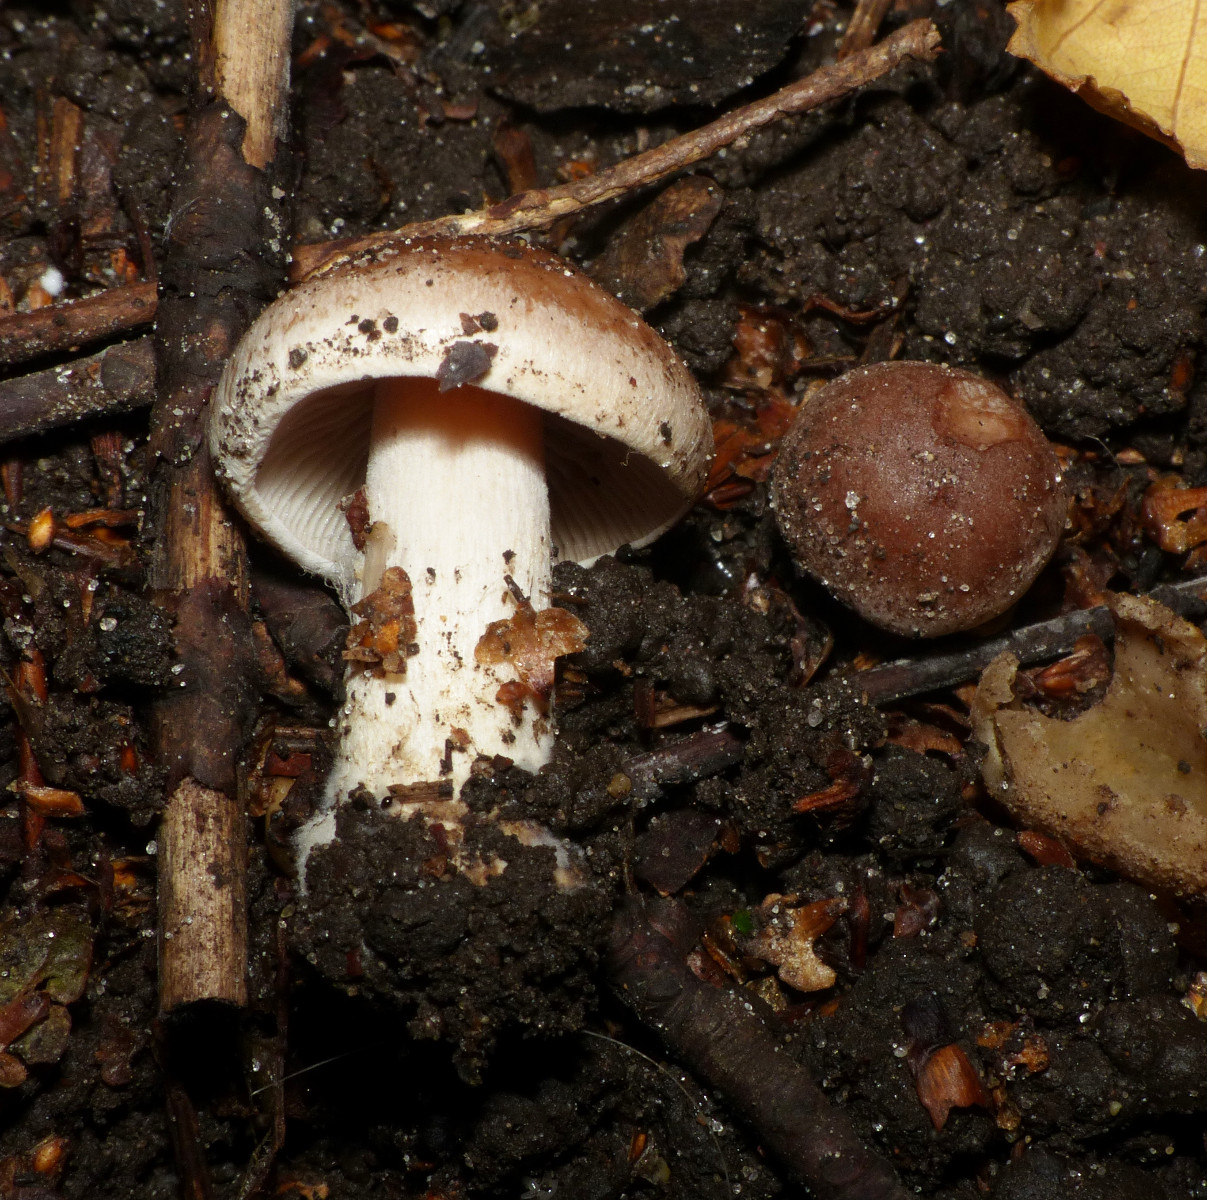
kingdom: Fungi
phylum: Basidiomycota
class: Agaricomycetes
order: Agaricales
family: Hymenogastraceae
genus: Hebeloma
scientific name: Hebeloma
